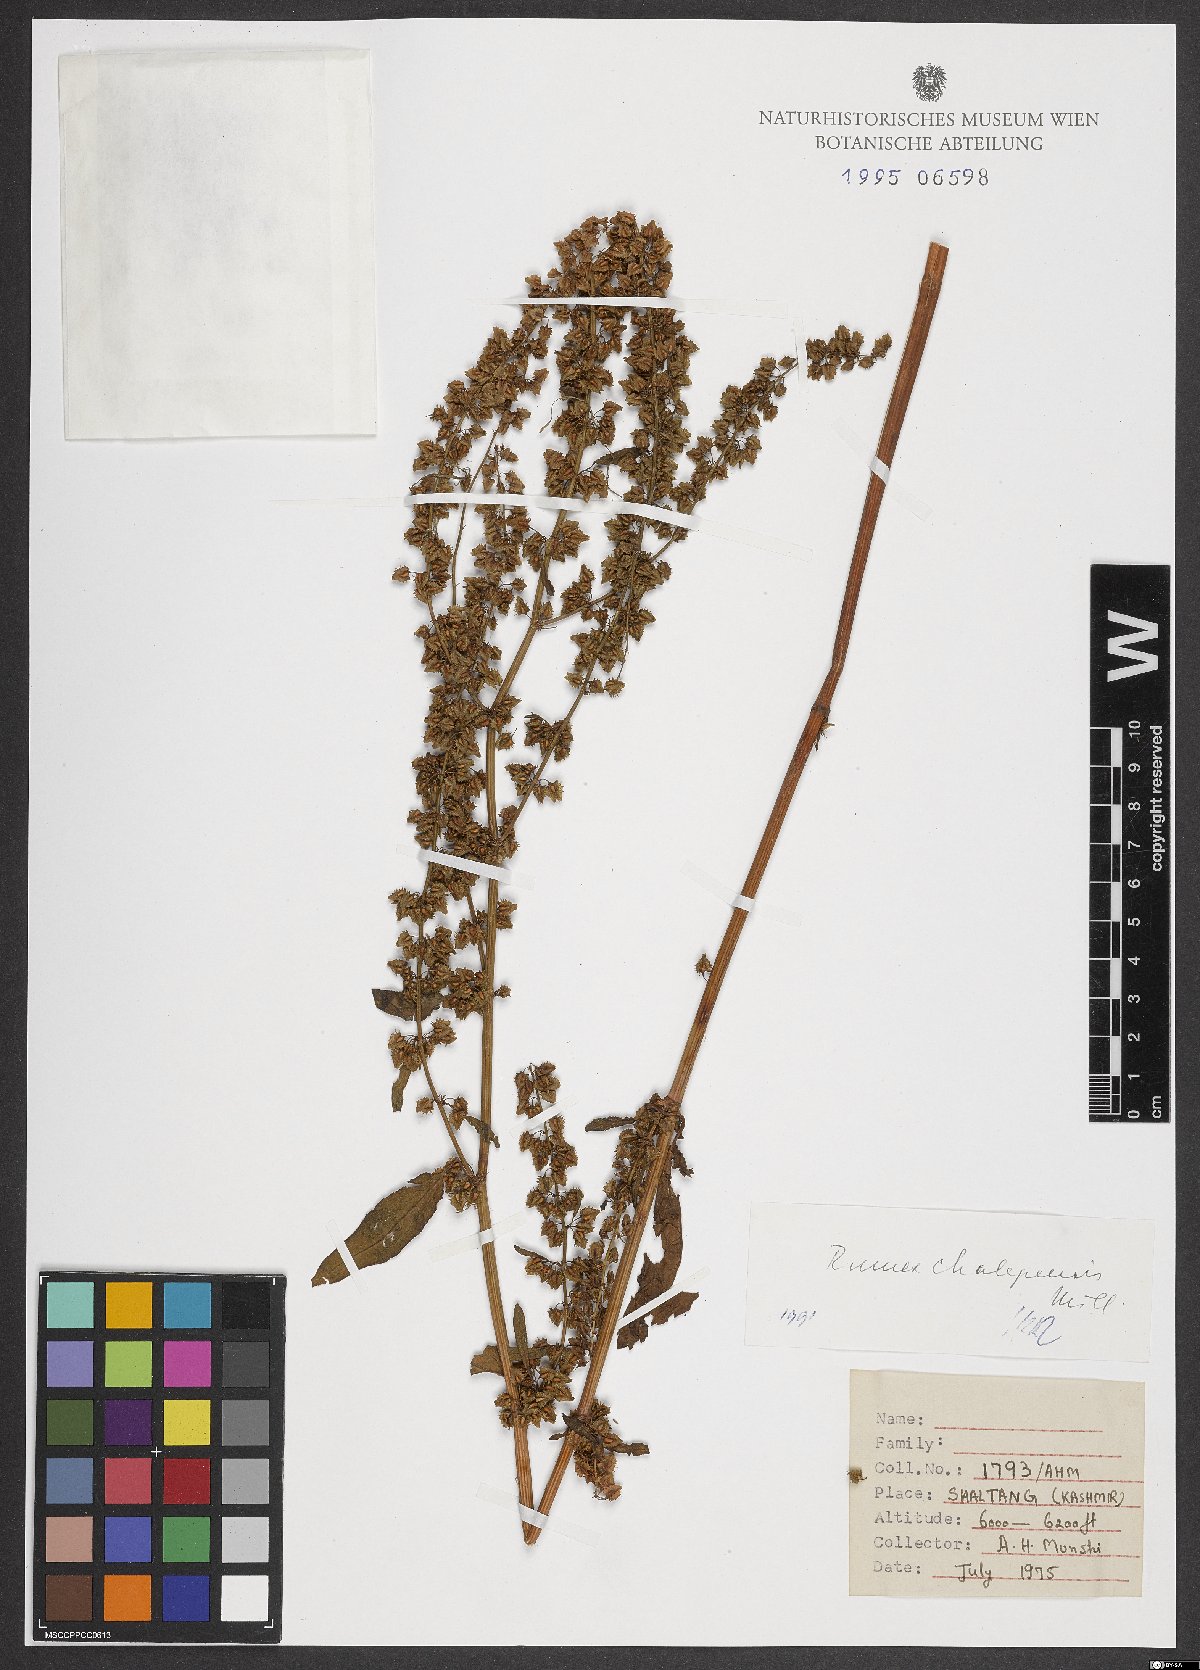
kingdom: Plantae
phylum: Tracheophyta
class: Magnoliopsida
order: Caryophyllales
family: Polygonaceae
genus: Rumex
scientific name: Rumex chalepensis
